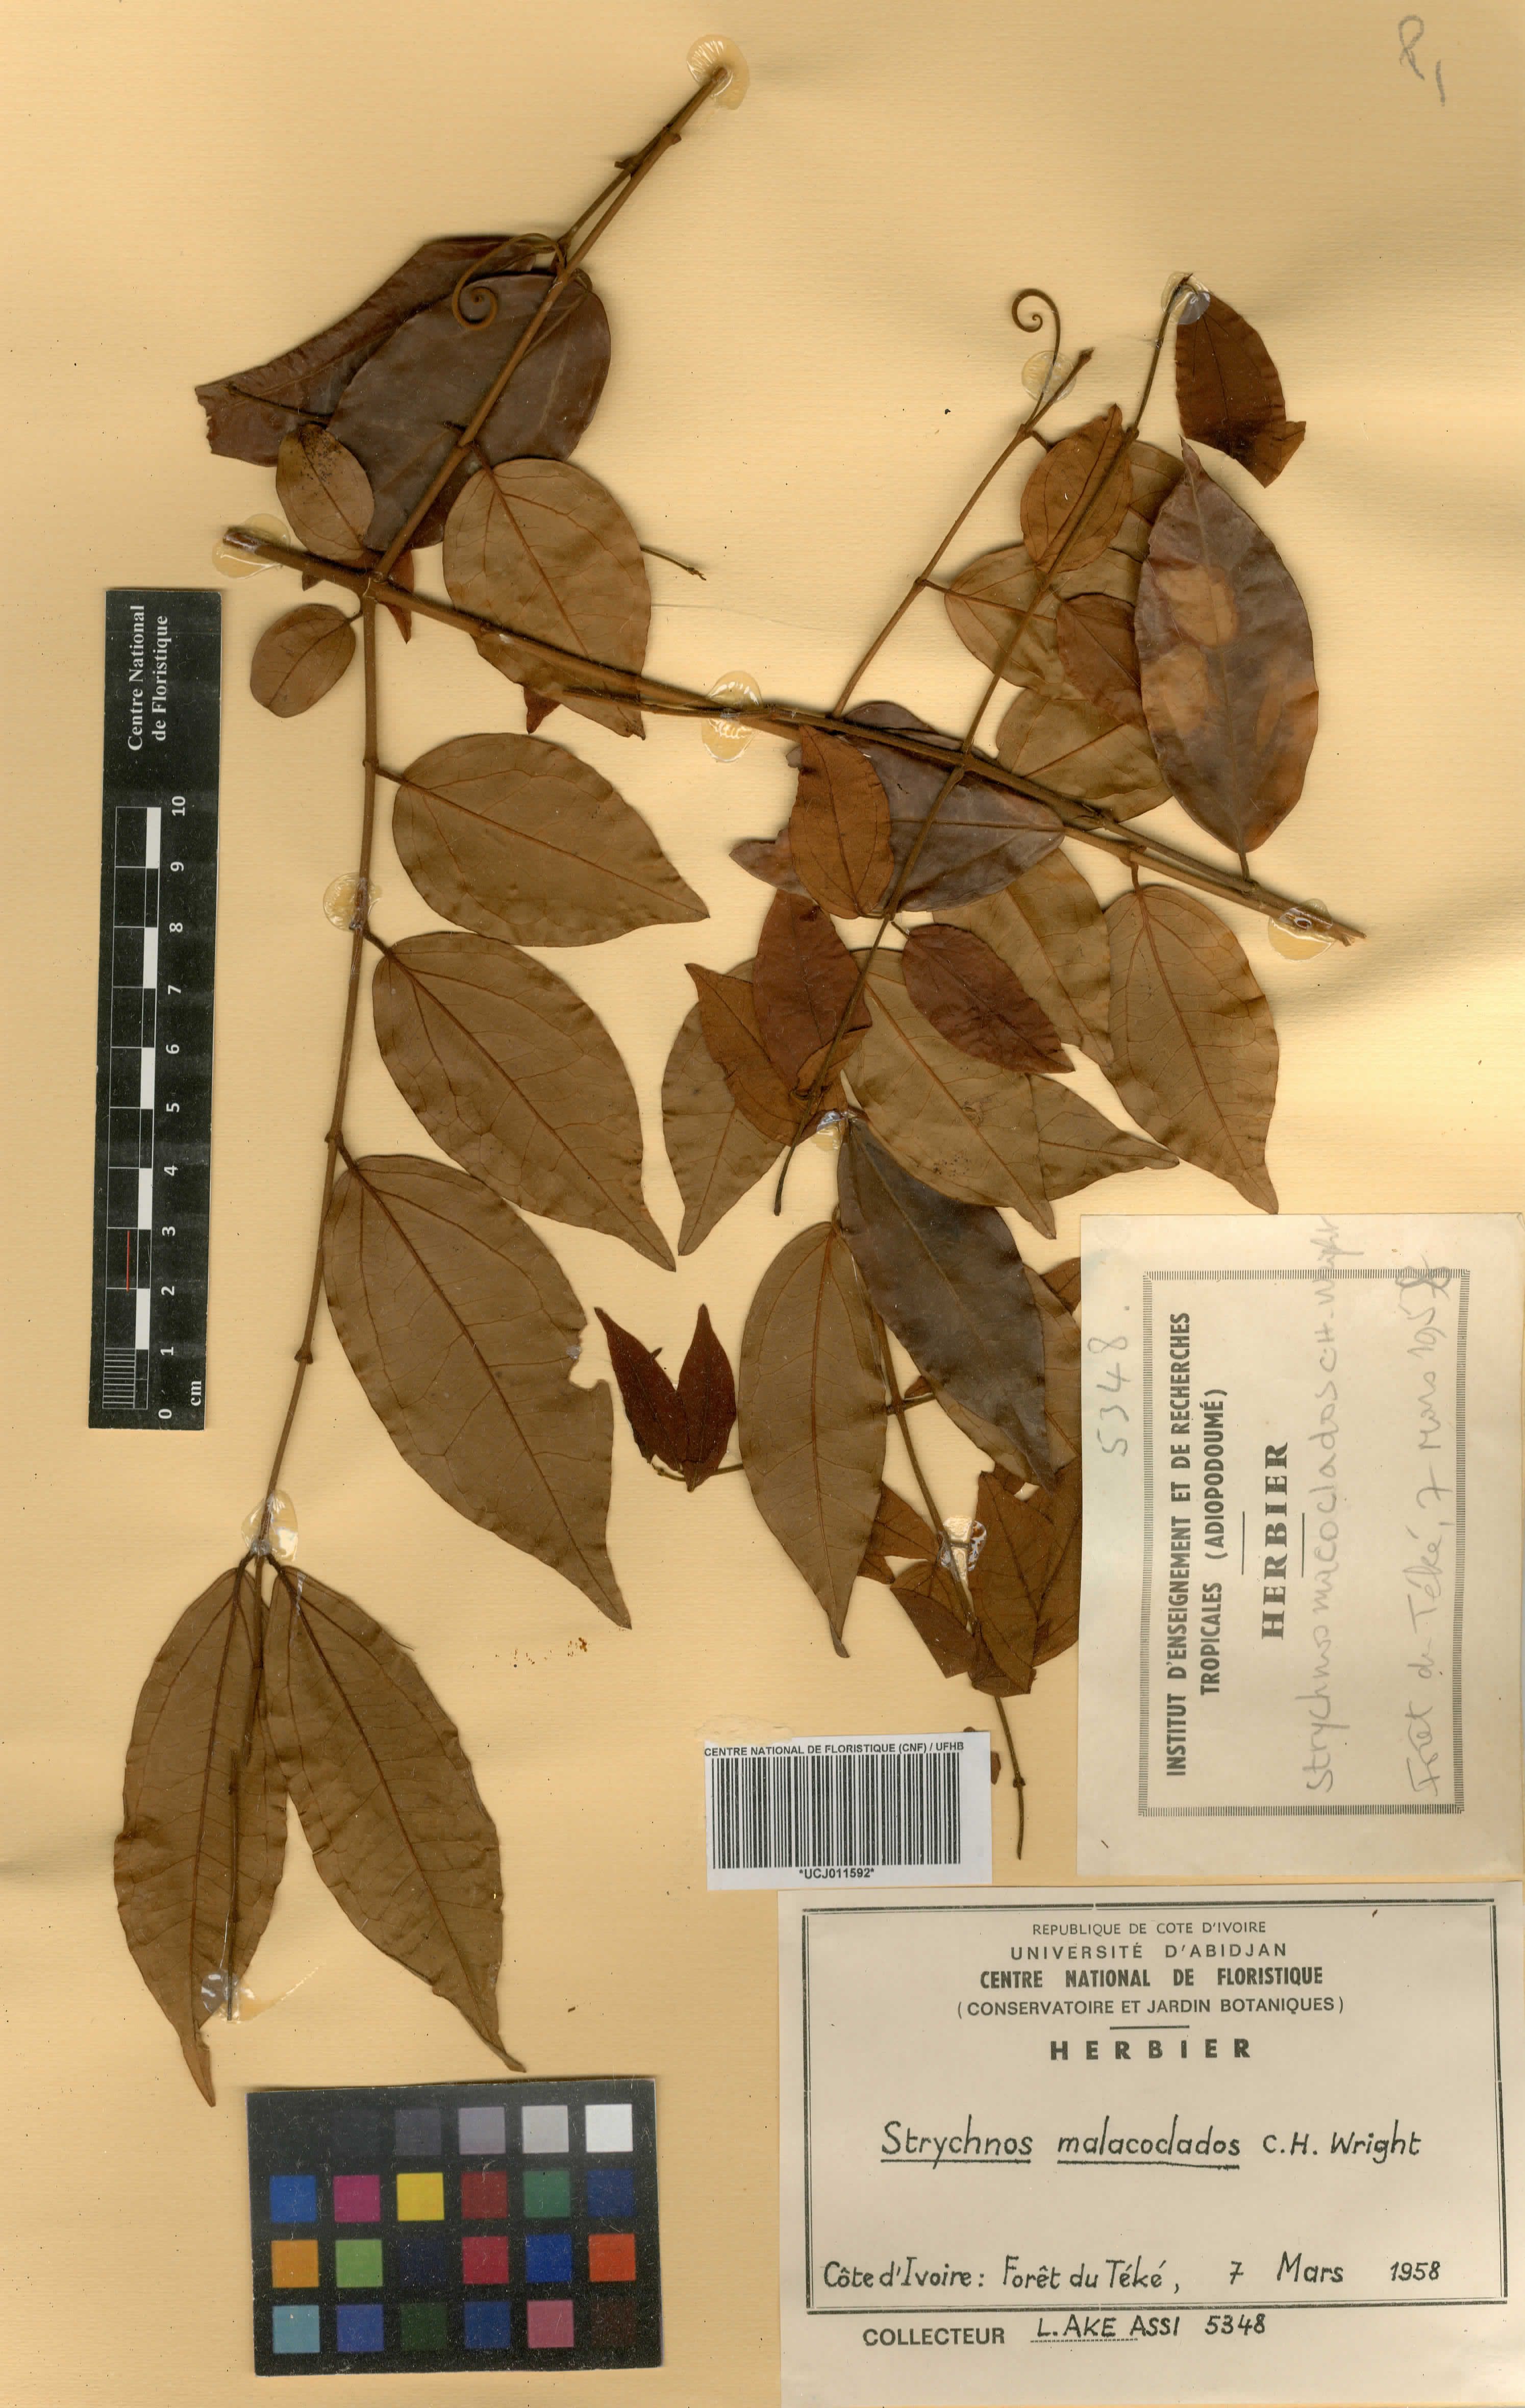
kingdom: Plantae
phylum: Tracheophyta
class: Magnoliopsida
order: Gentianales
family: Loganiaceae
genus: Strychnos
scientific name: Strychnos malacoclados
